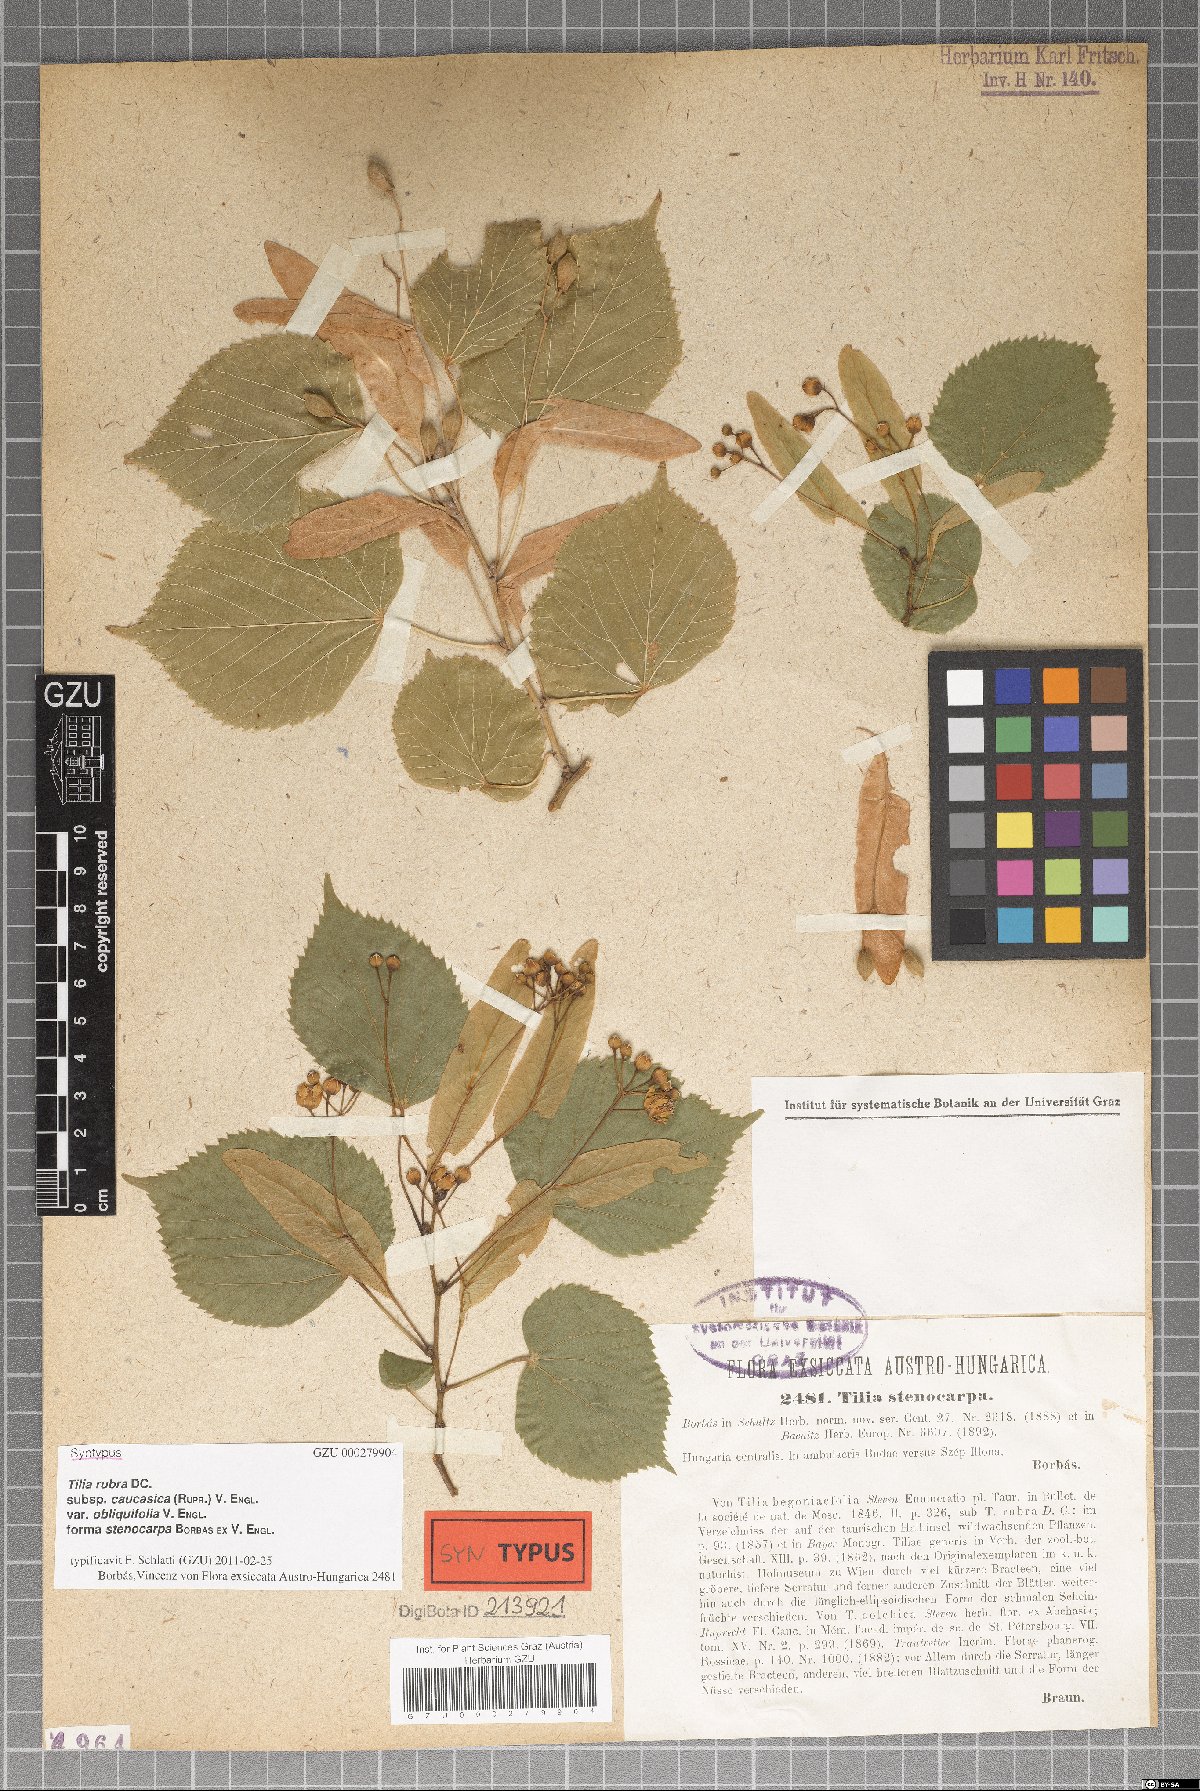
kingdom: Plantae
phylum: Tracheophyta
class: Magnoliopsida
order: Malvales
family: Malvaceae
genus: Tilia
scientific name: Tilia platyphyllos
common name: Large-leaved lime
